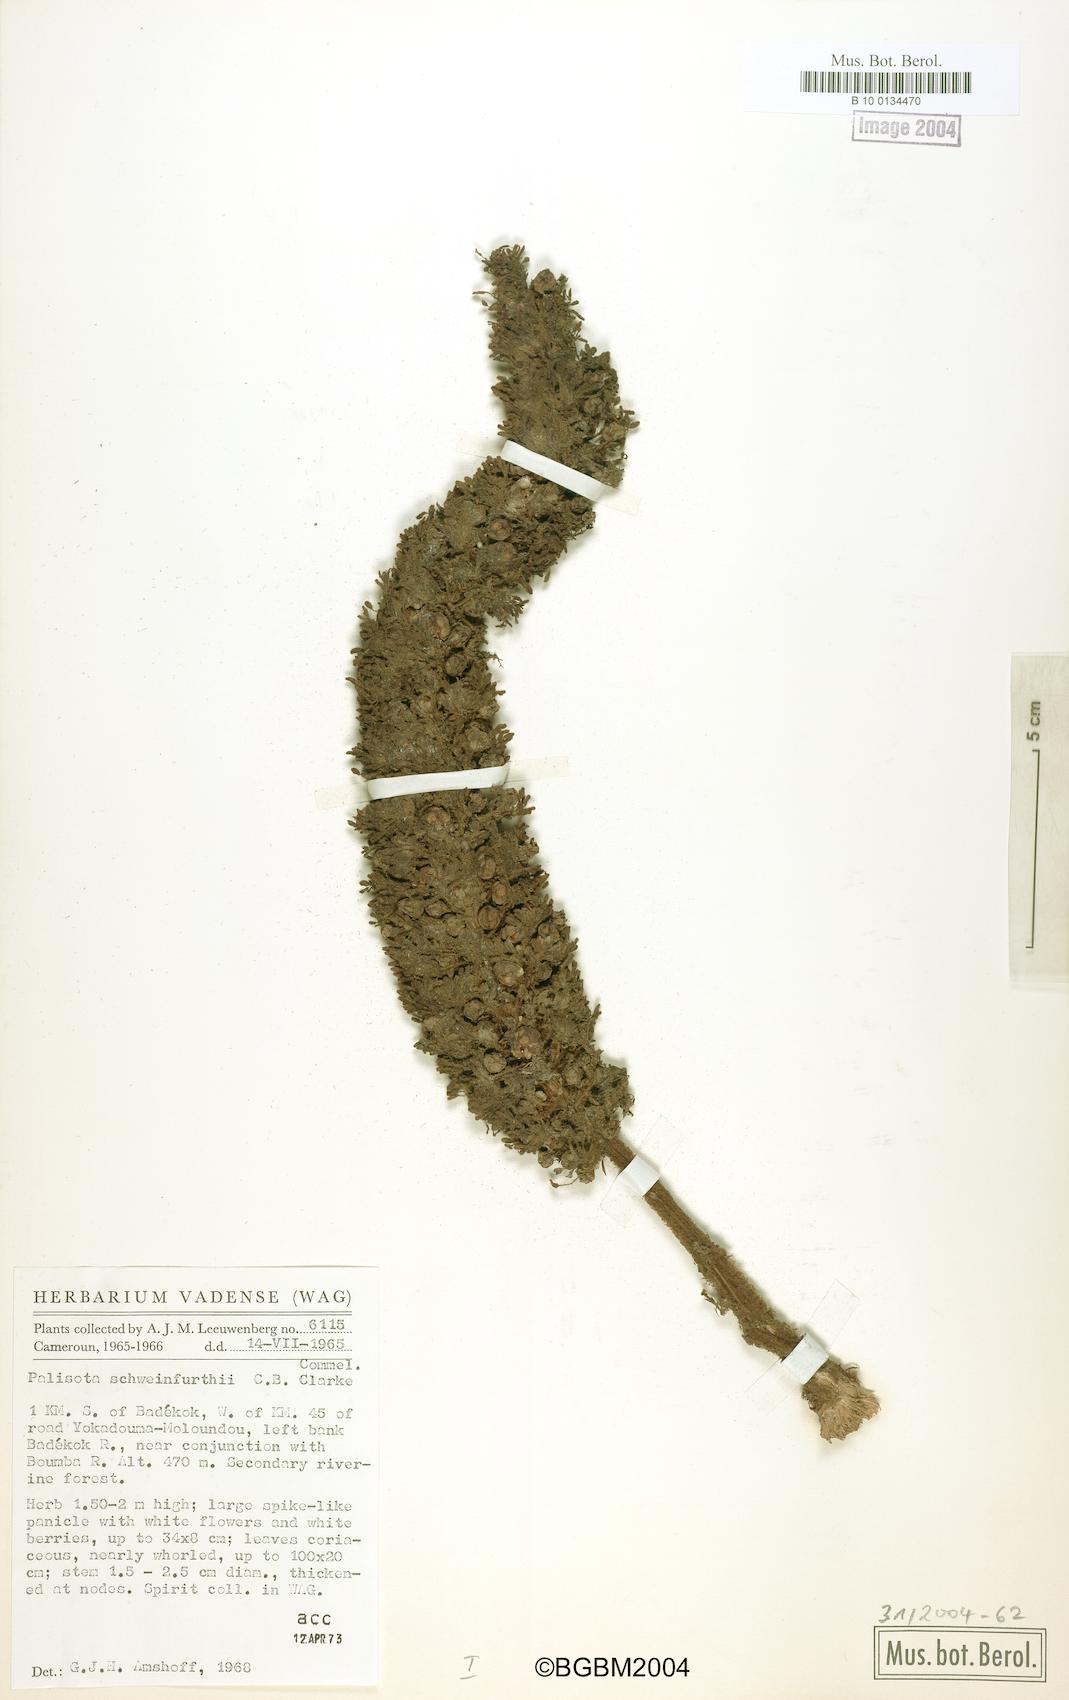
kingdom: Plantae
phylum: Tracheophyta
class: Liliopsida
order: Commelinales
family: Commelinaceae
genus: Palisota
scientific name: Palisota schweinfurthii
